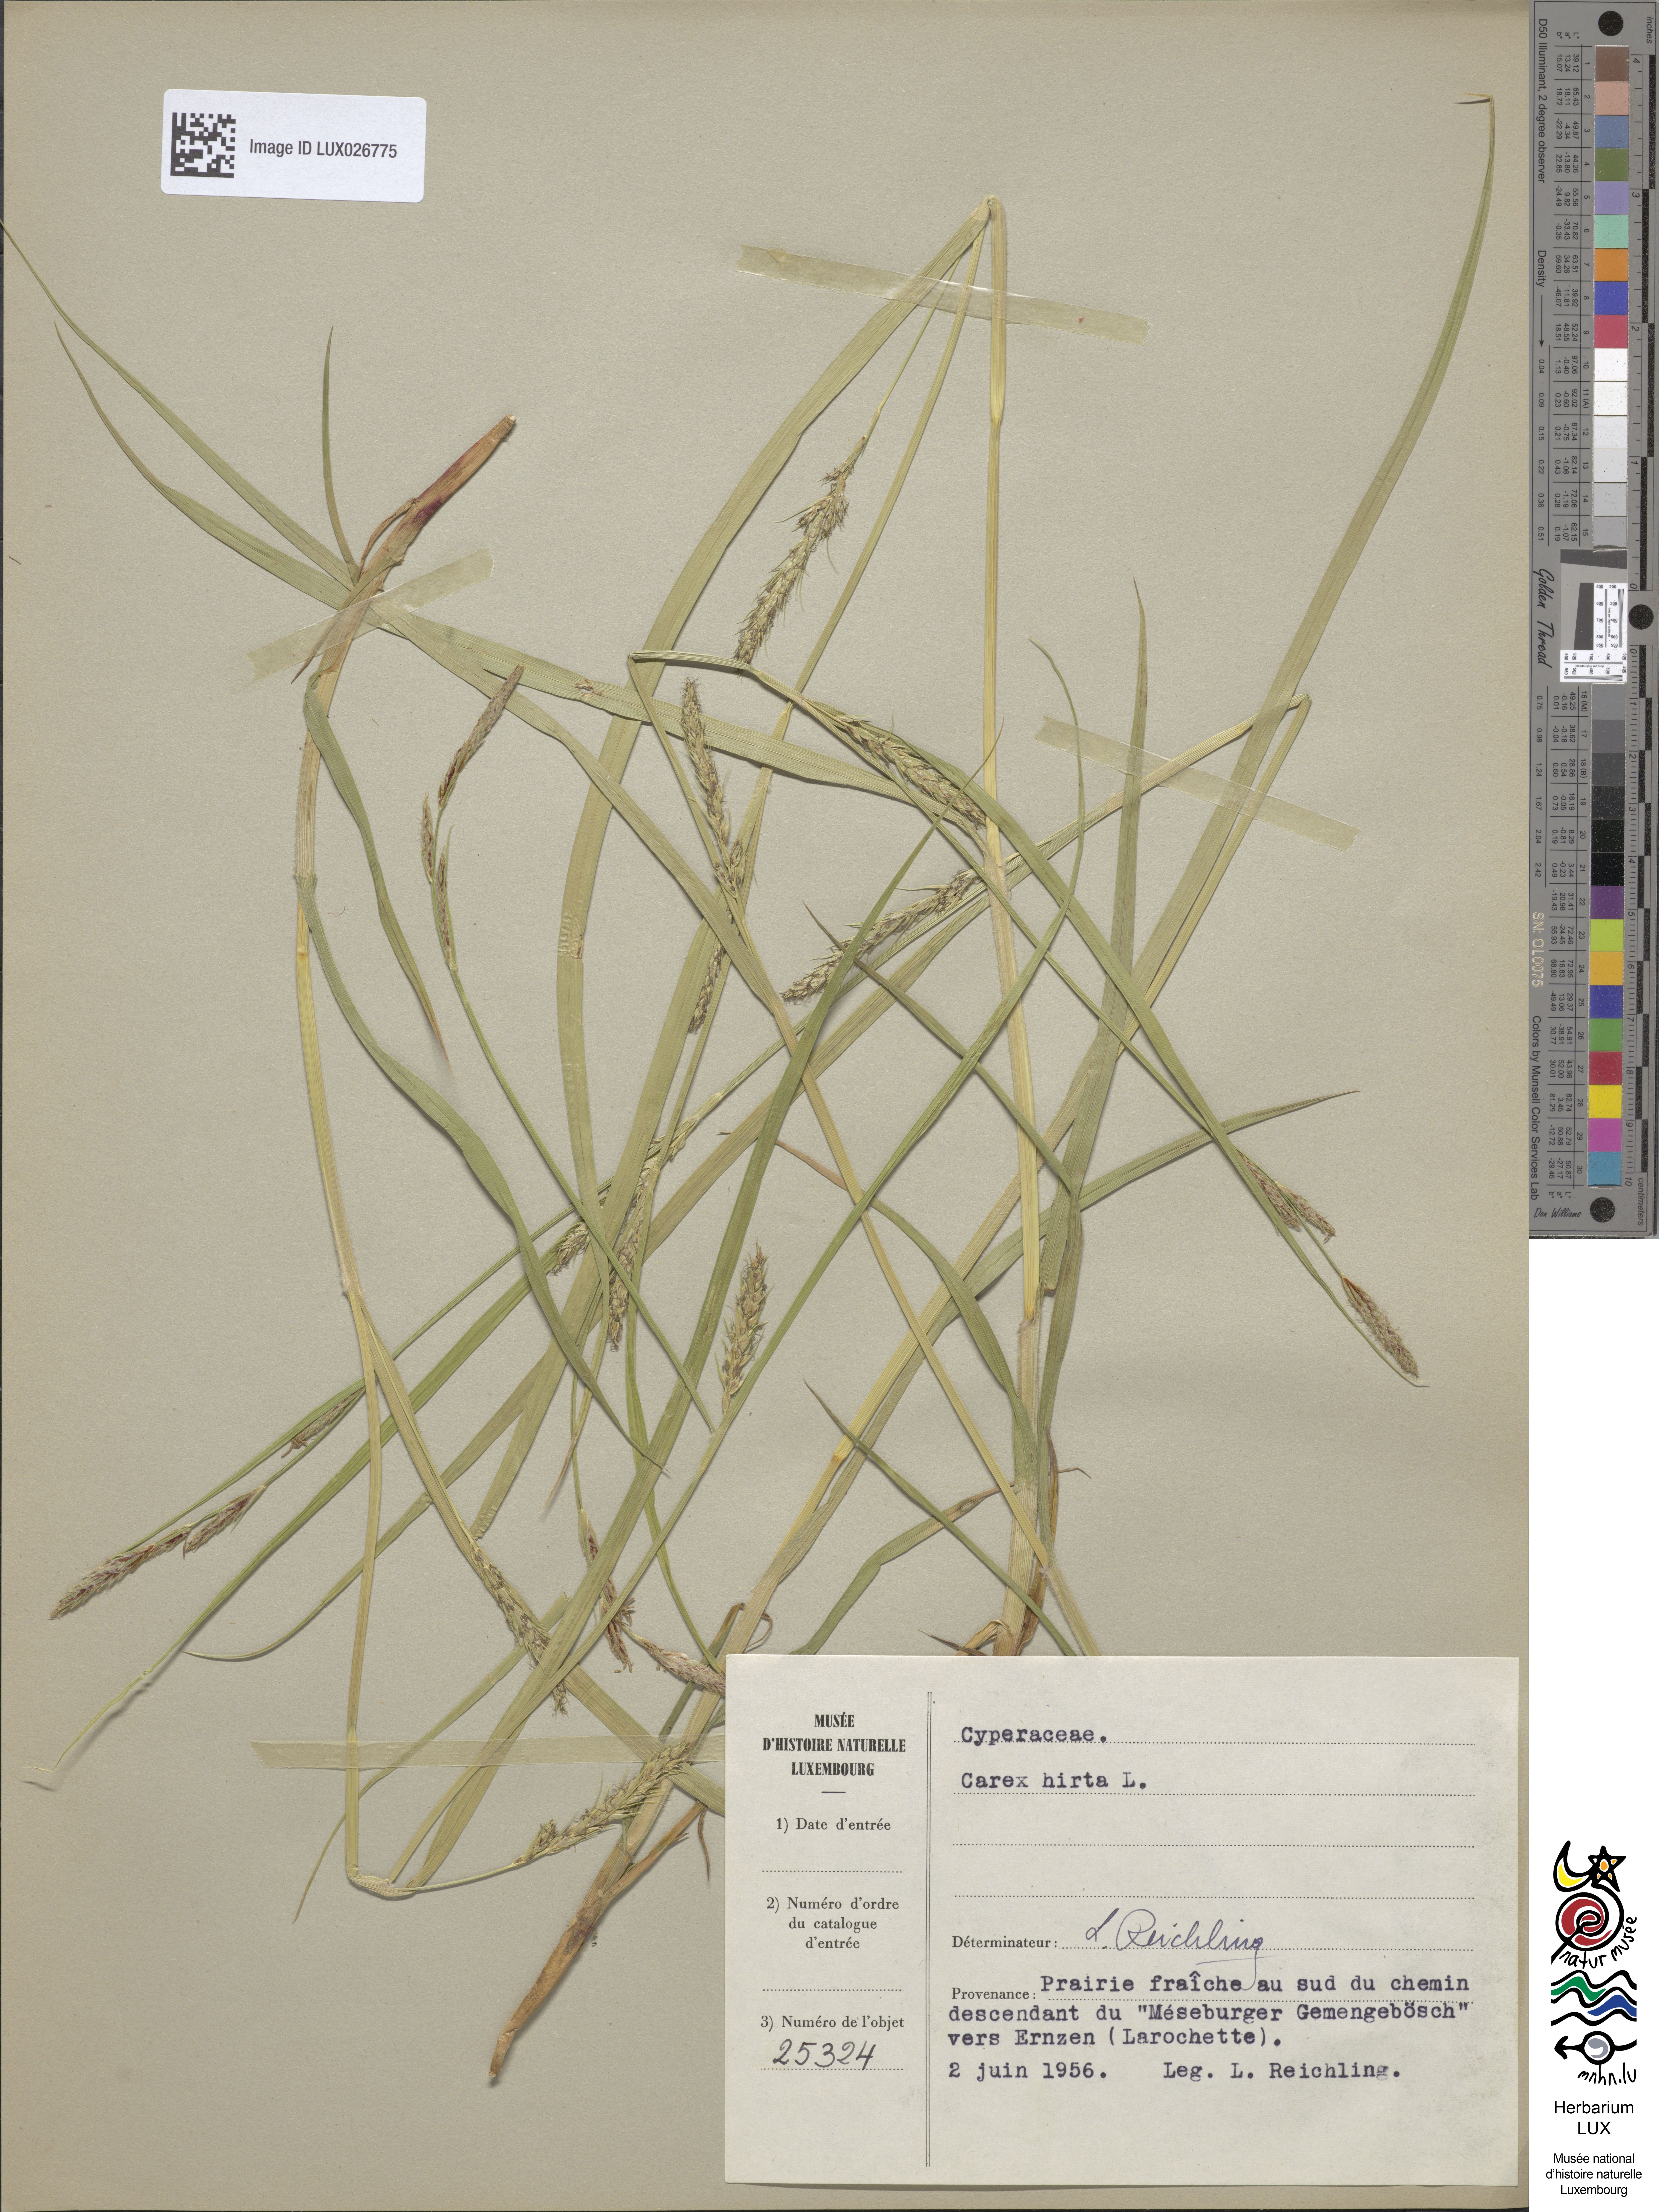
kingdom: Plantae
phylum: Tracheophyta
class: Liliopsida
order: Poales
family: Cyperaceae
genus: Carex
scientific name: Carex hirta
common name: Hairy sedge
